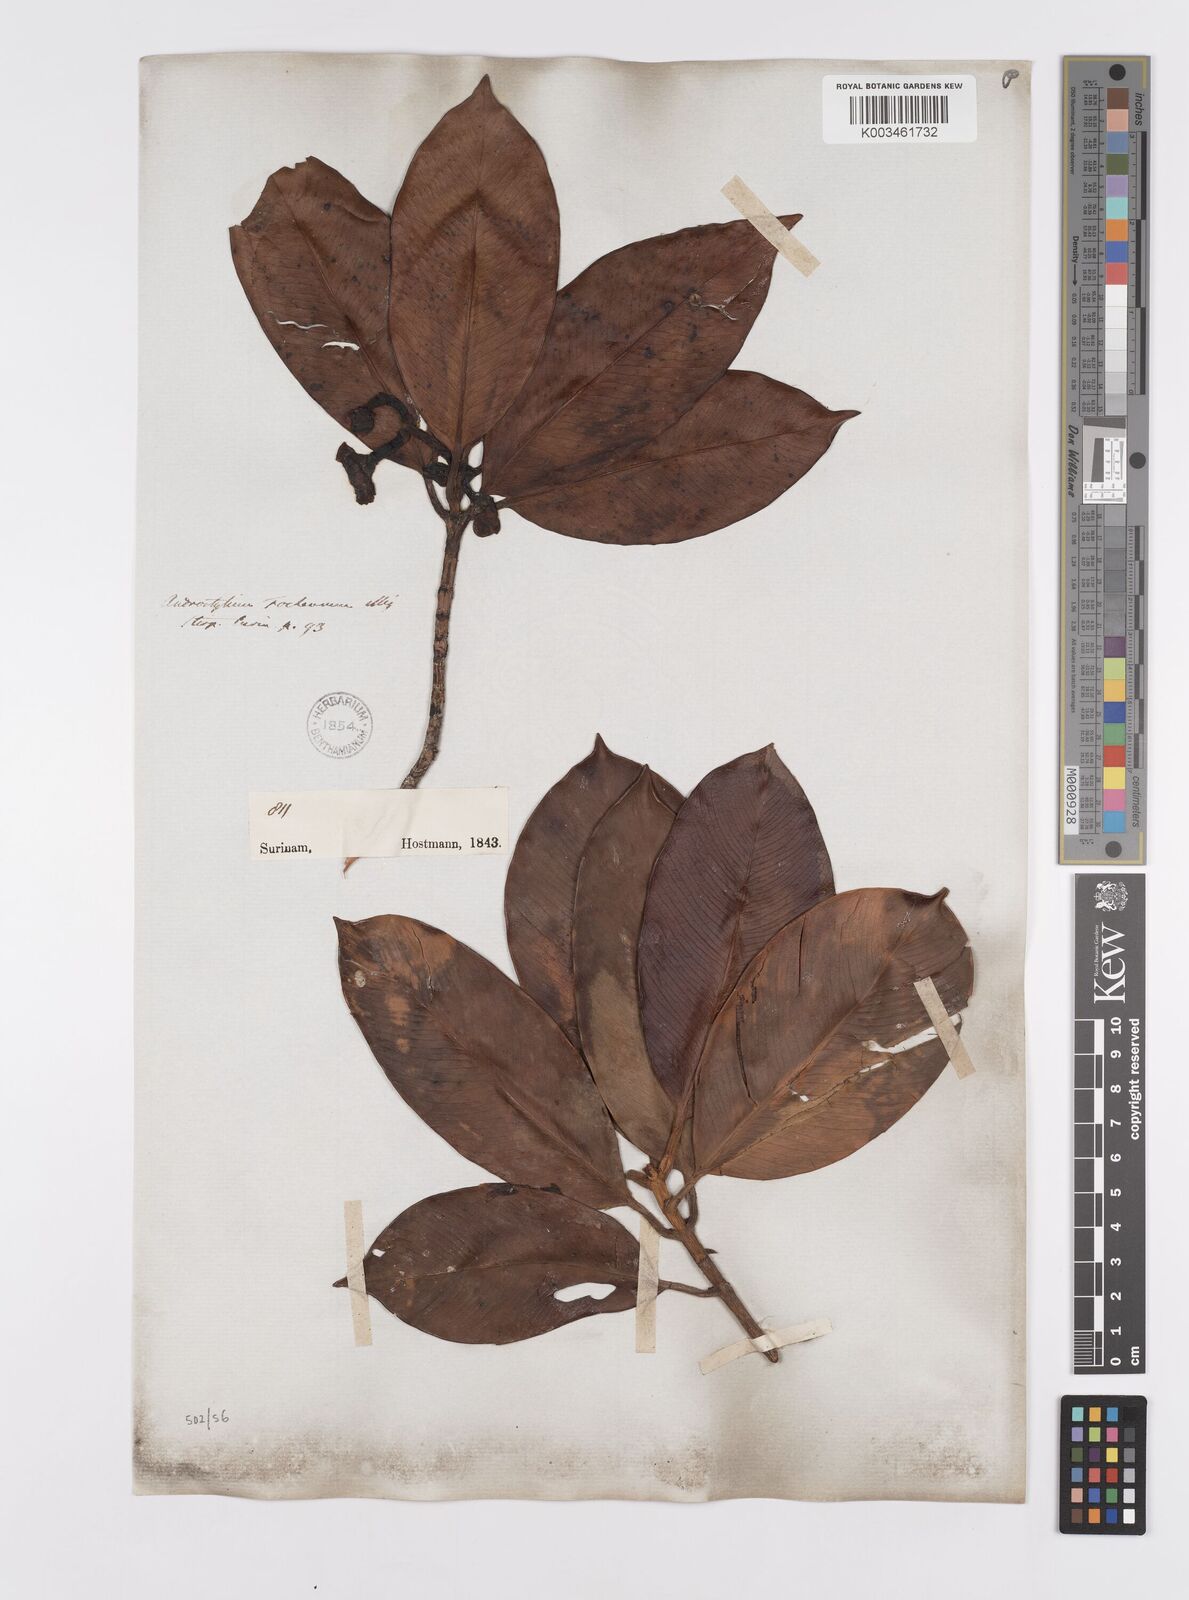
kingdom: Plantae
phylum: Tracheophyta
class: Magnoliopsida
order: Malpighiales
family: Clusiaceae
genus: Clusia
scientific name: Clusia fockeana
